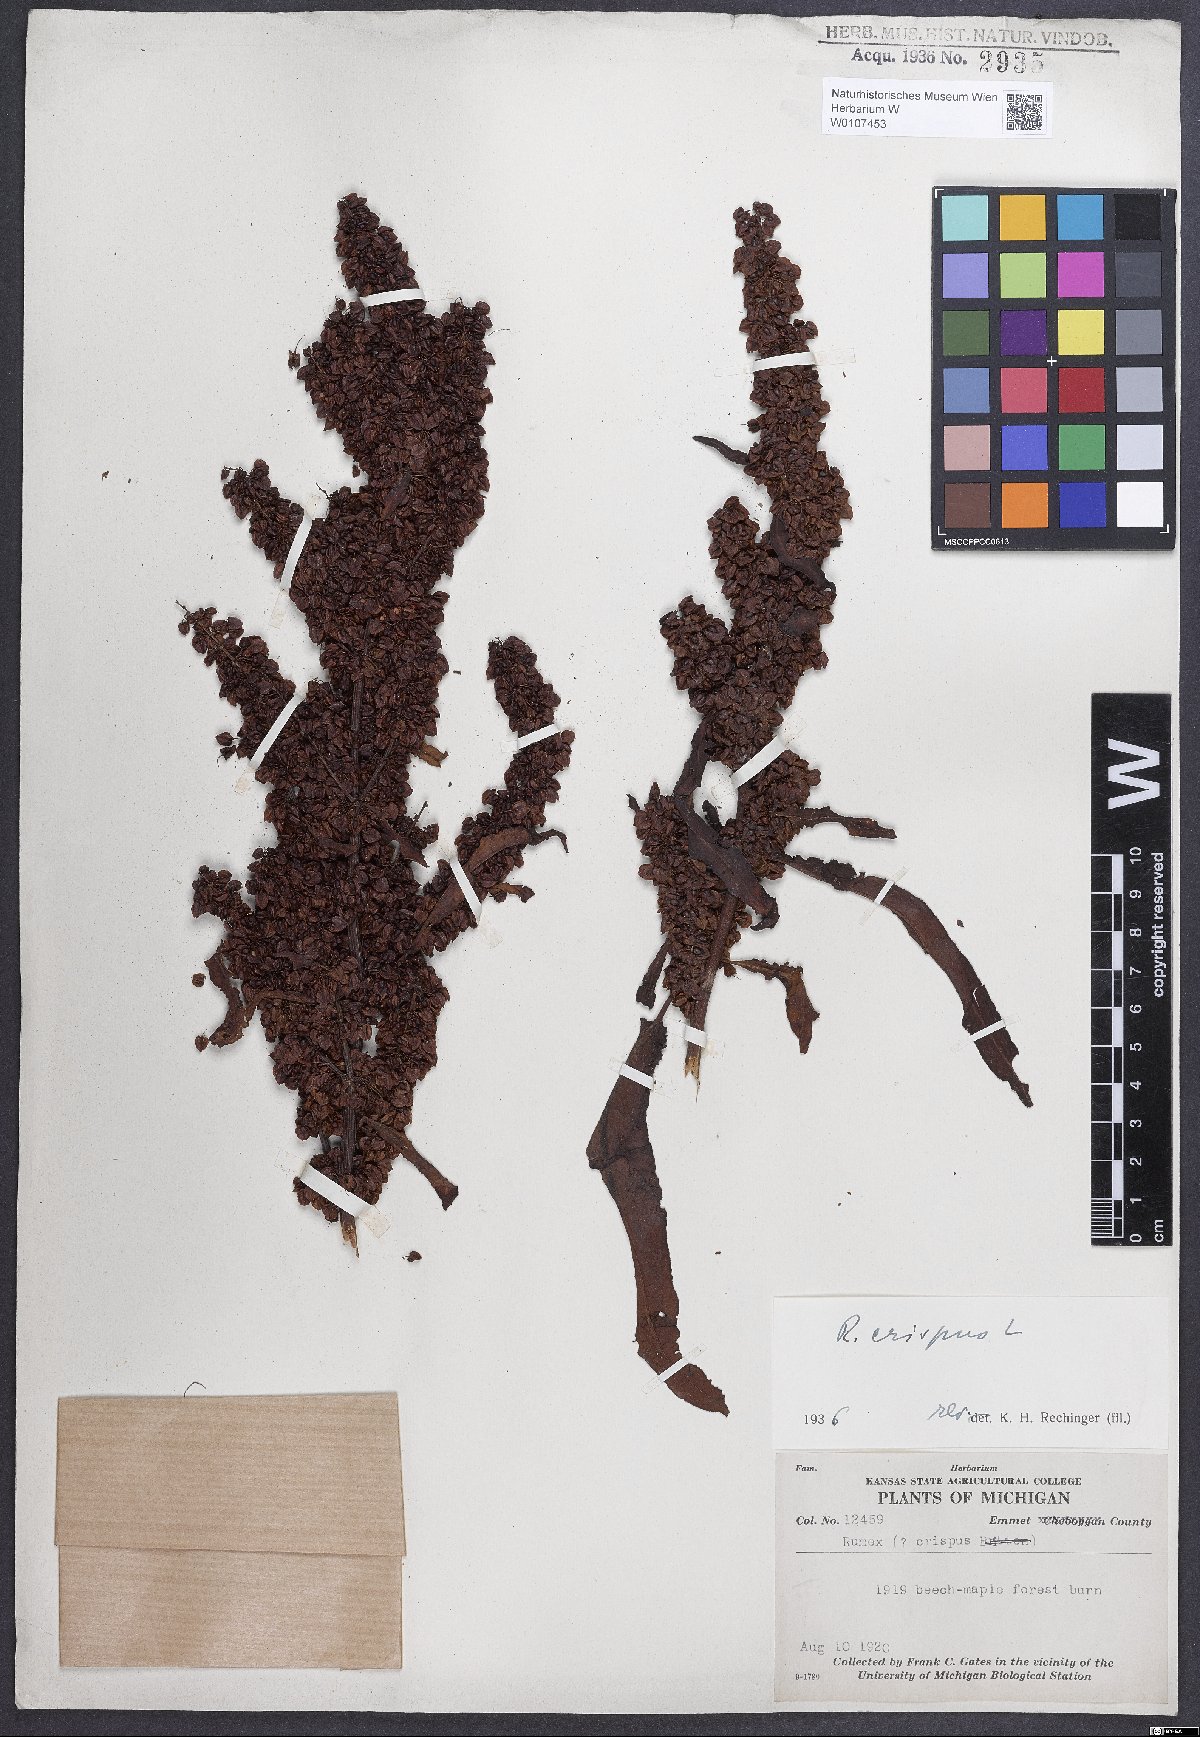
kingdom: Plantae
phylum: Tracheophyta
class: Magnoliopsida
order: Caryophyllales
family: Polygonaceae
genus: Rumex
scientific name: Rumex crispus
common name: Curled dock
